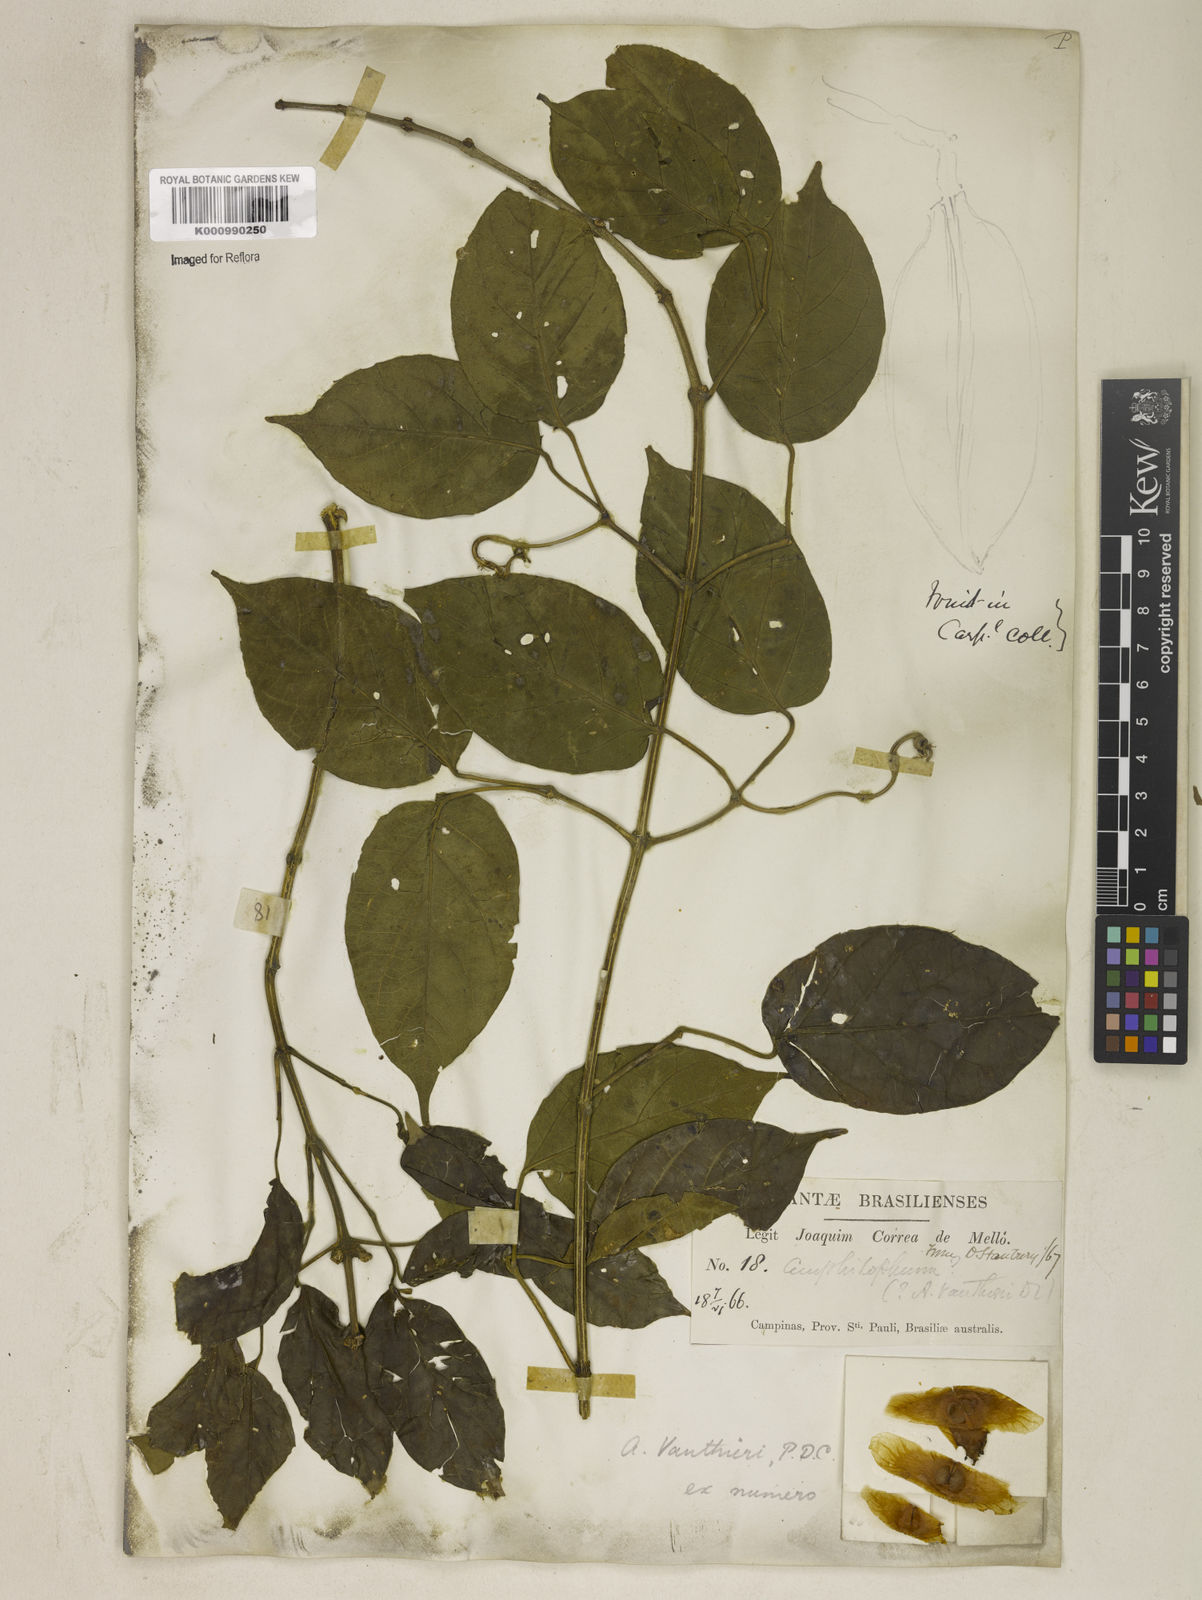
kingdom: Plantae
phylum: Tracheophyta
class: Magnoliopsida
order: Lamiales
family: Bignoniaceae
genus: Amphilophium
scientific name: Amphilophium paniculatum
